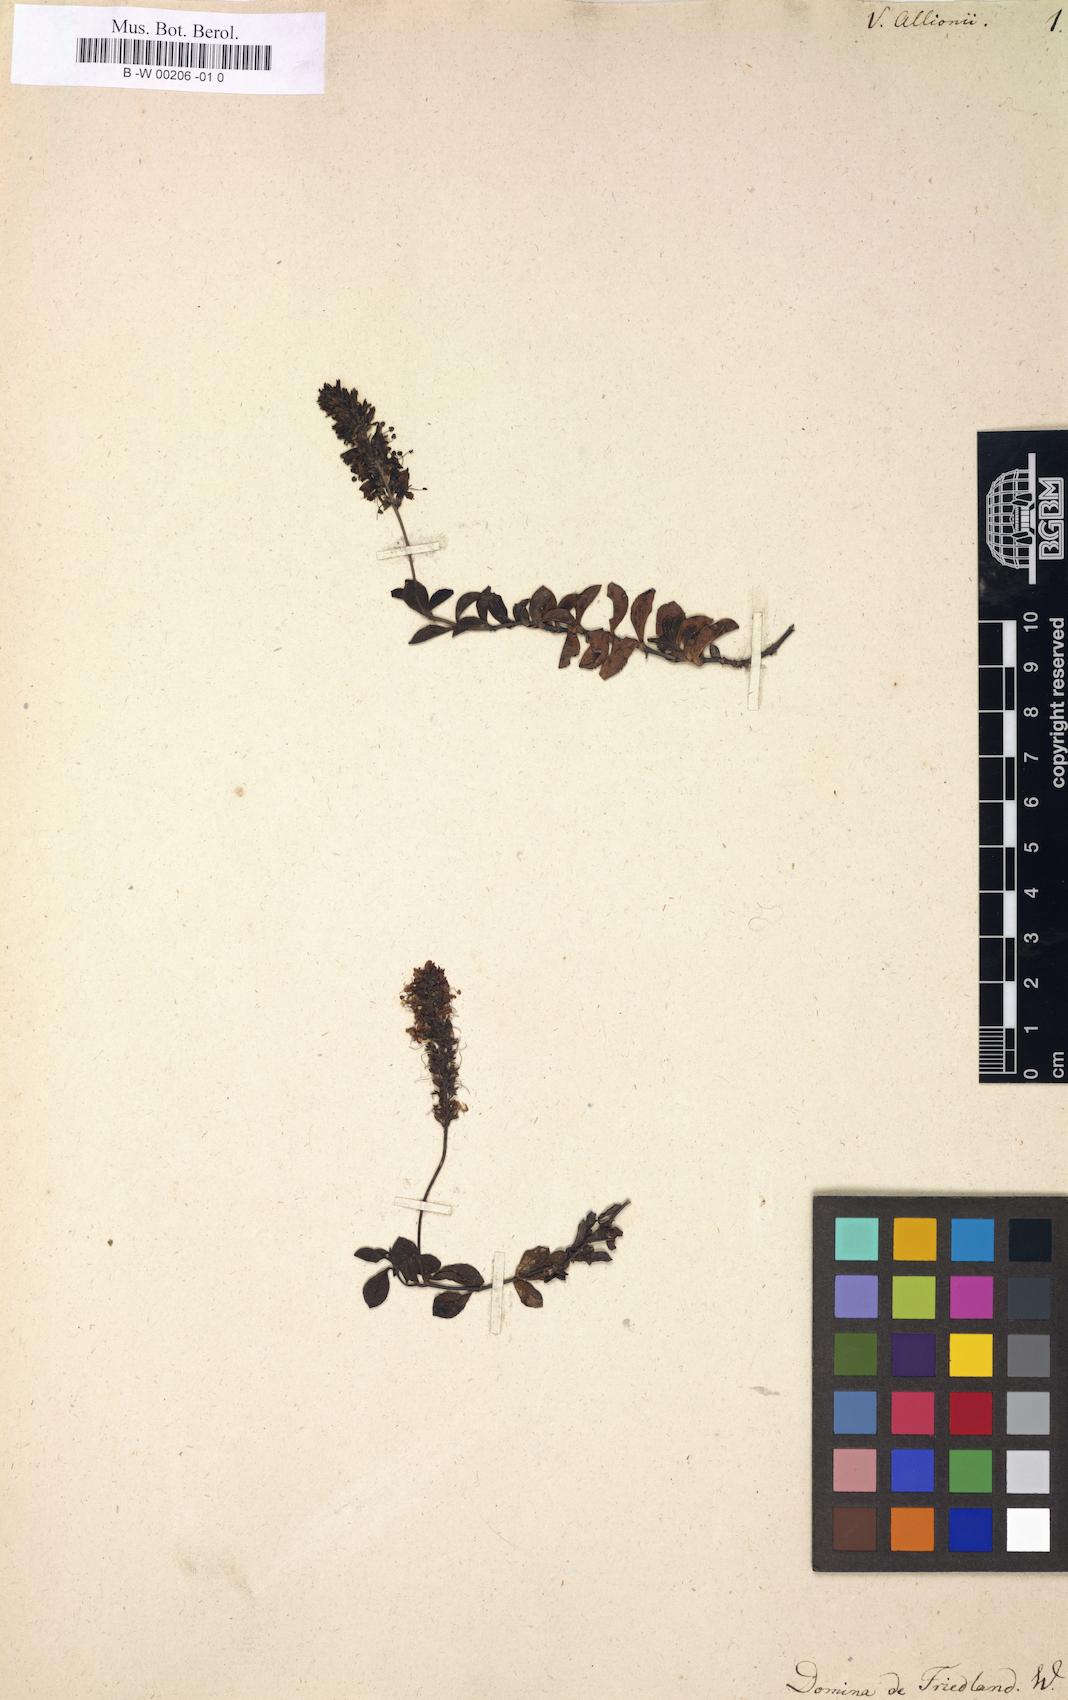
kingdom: Plantae
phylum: Tracheophyta
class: Magnoliopsida
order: Lamiales
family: Plantaginaceae
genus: Veronica
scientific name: Veronica allionii
